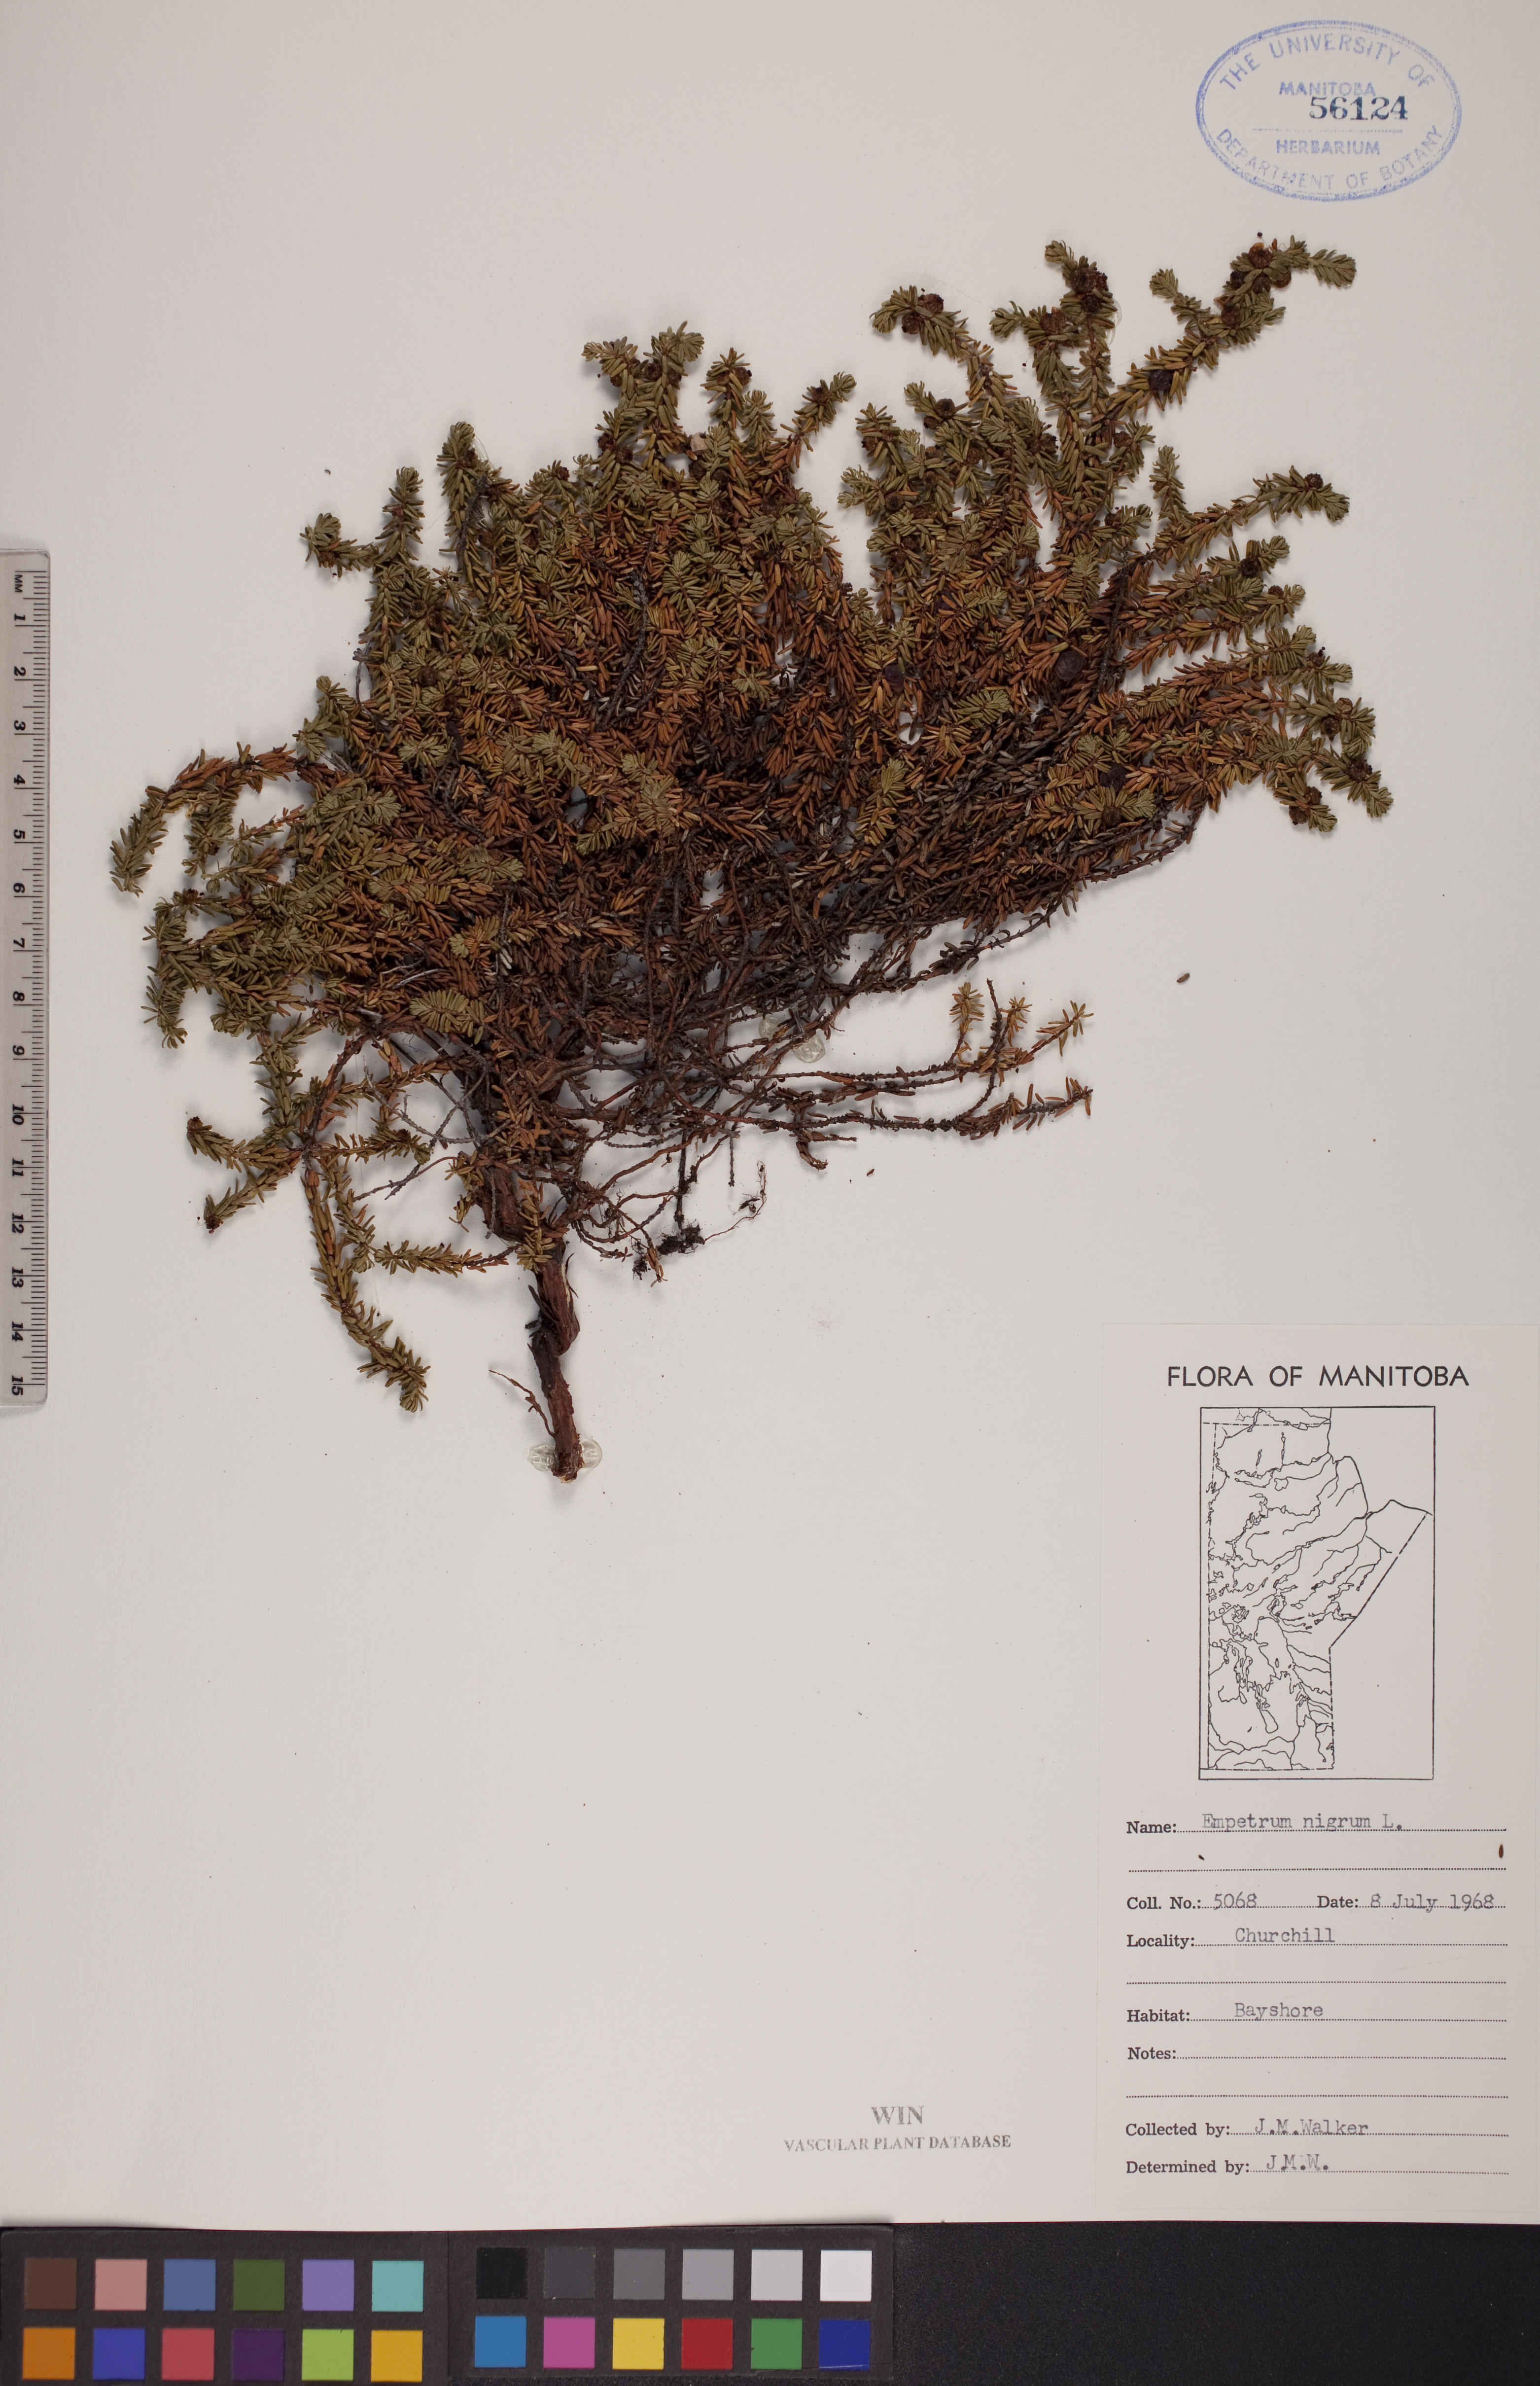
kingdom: Plantae
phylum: Tracheophyta
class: Magnoliopsida
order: Ericales
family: Ericaceae
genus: Empetrum
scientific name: Empetrum nigrum
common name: Black crowberry
